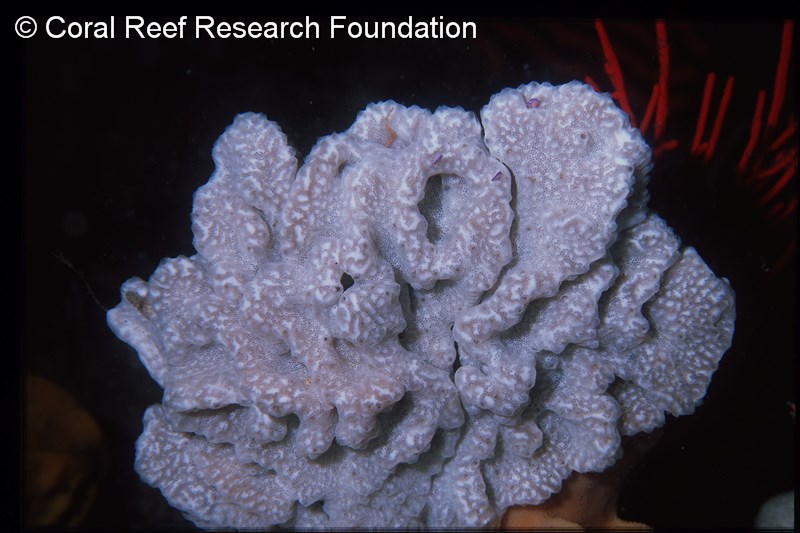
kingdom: Animalia
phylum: Chordata
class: Ascidiacea
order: Aplousobranchia
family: Polyclinidae
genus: Aplidium
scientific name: Aplidium pantherinum
